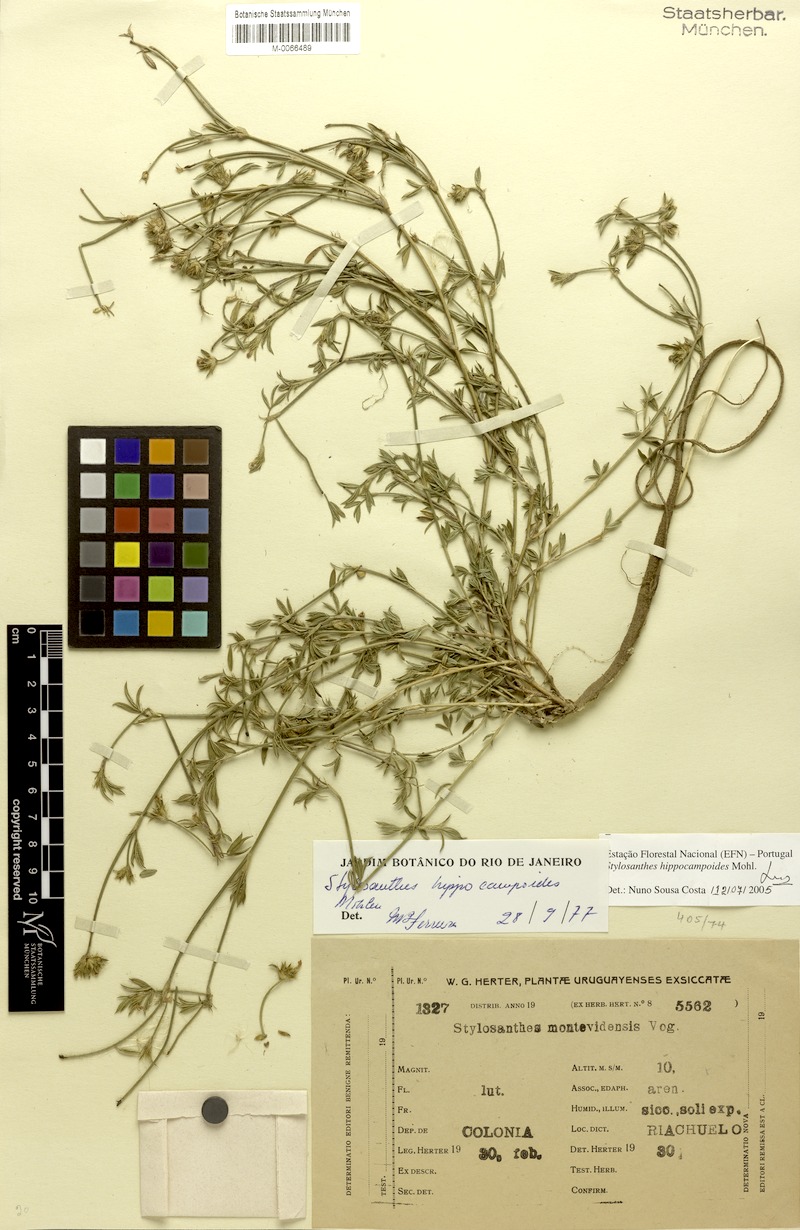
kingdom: Plantae
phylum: Tracheophyta
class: Magnoliopsida
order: Fabales
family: Fabaceae
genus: Stylosanthes
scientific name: Stylosanthes hippocampoides
